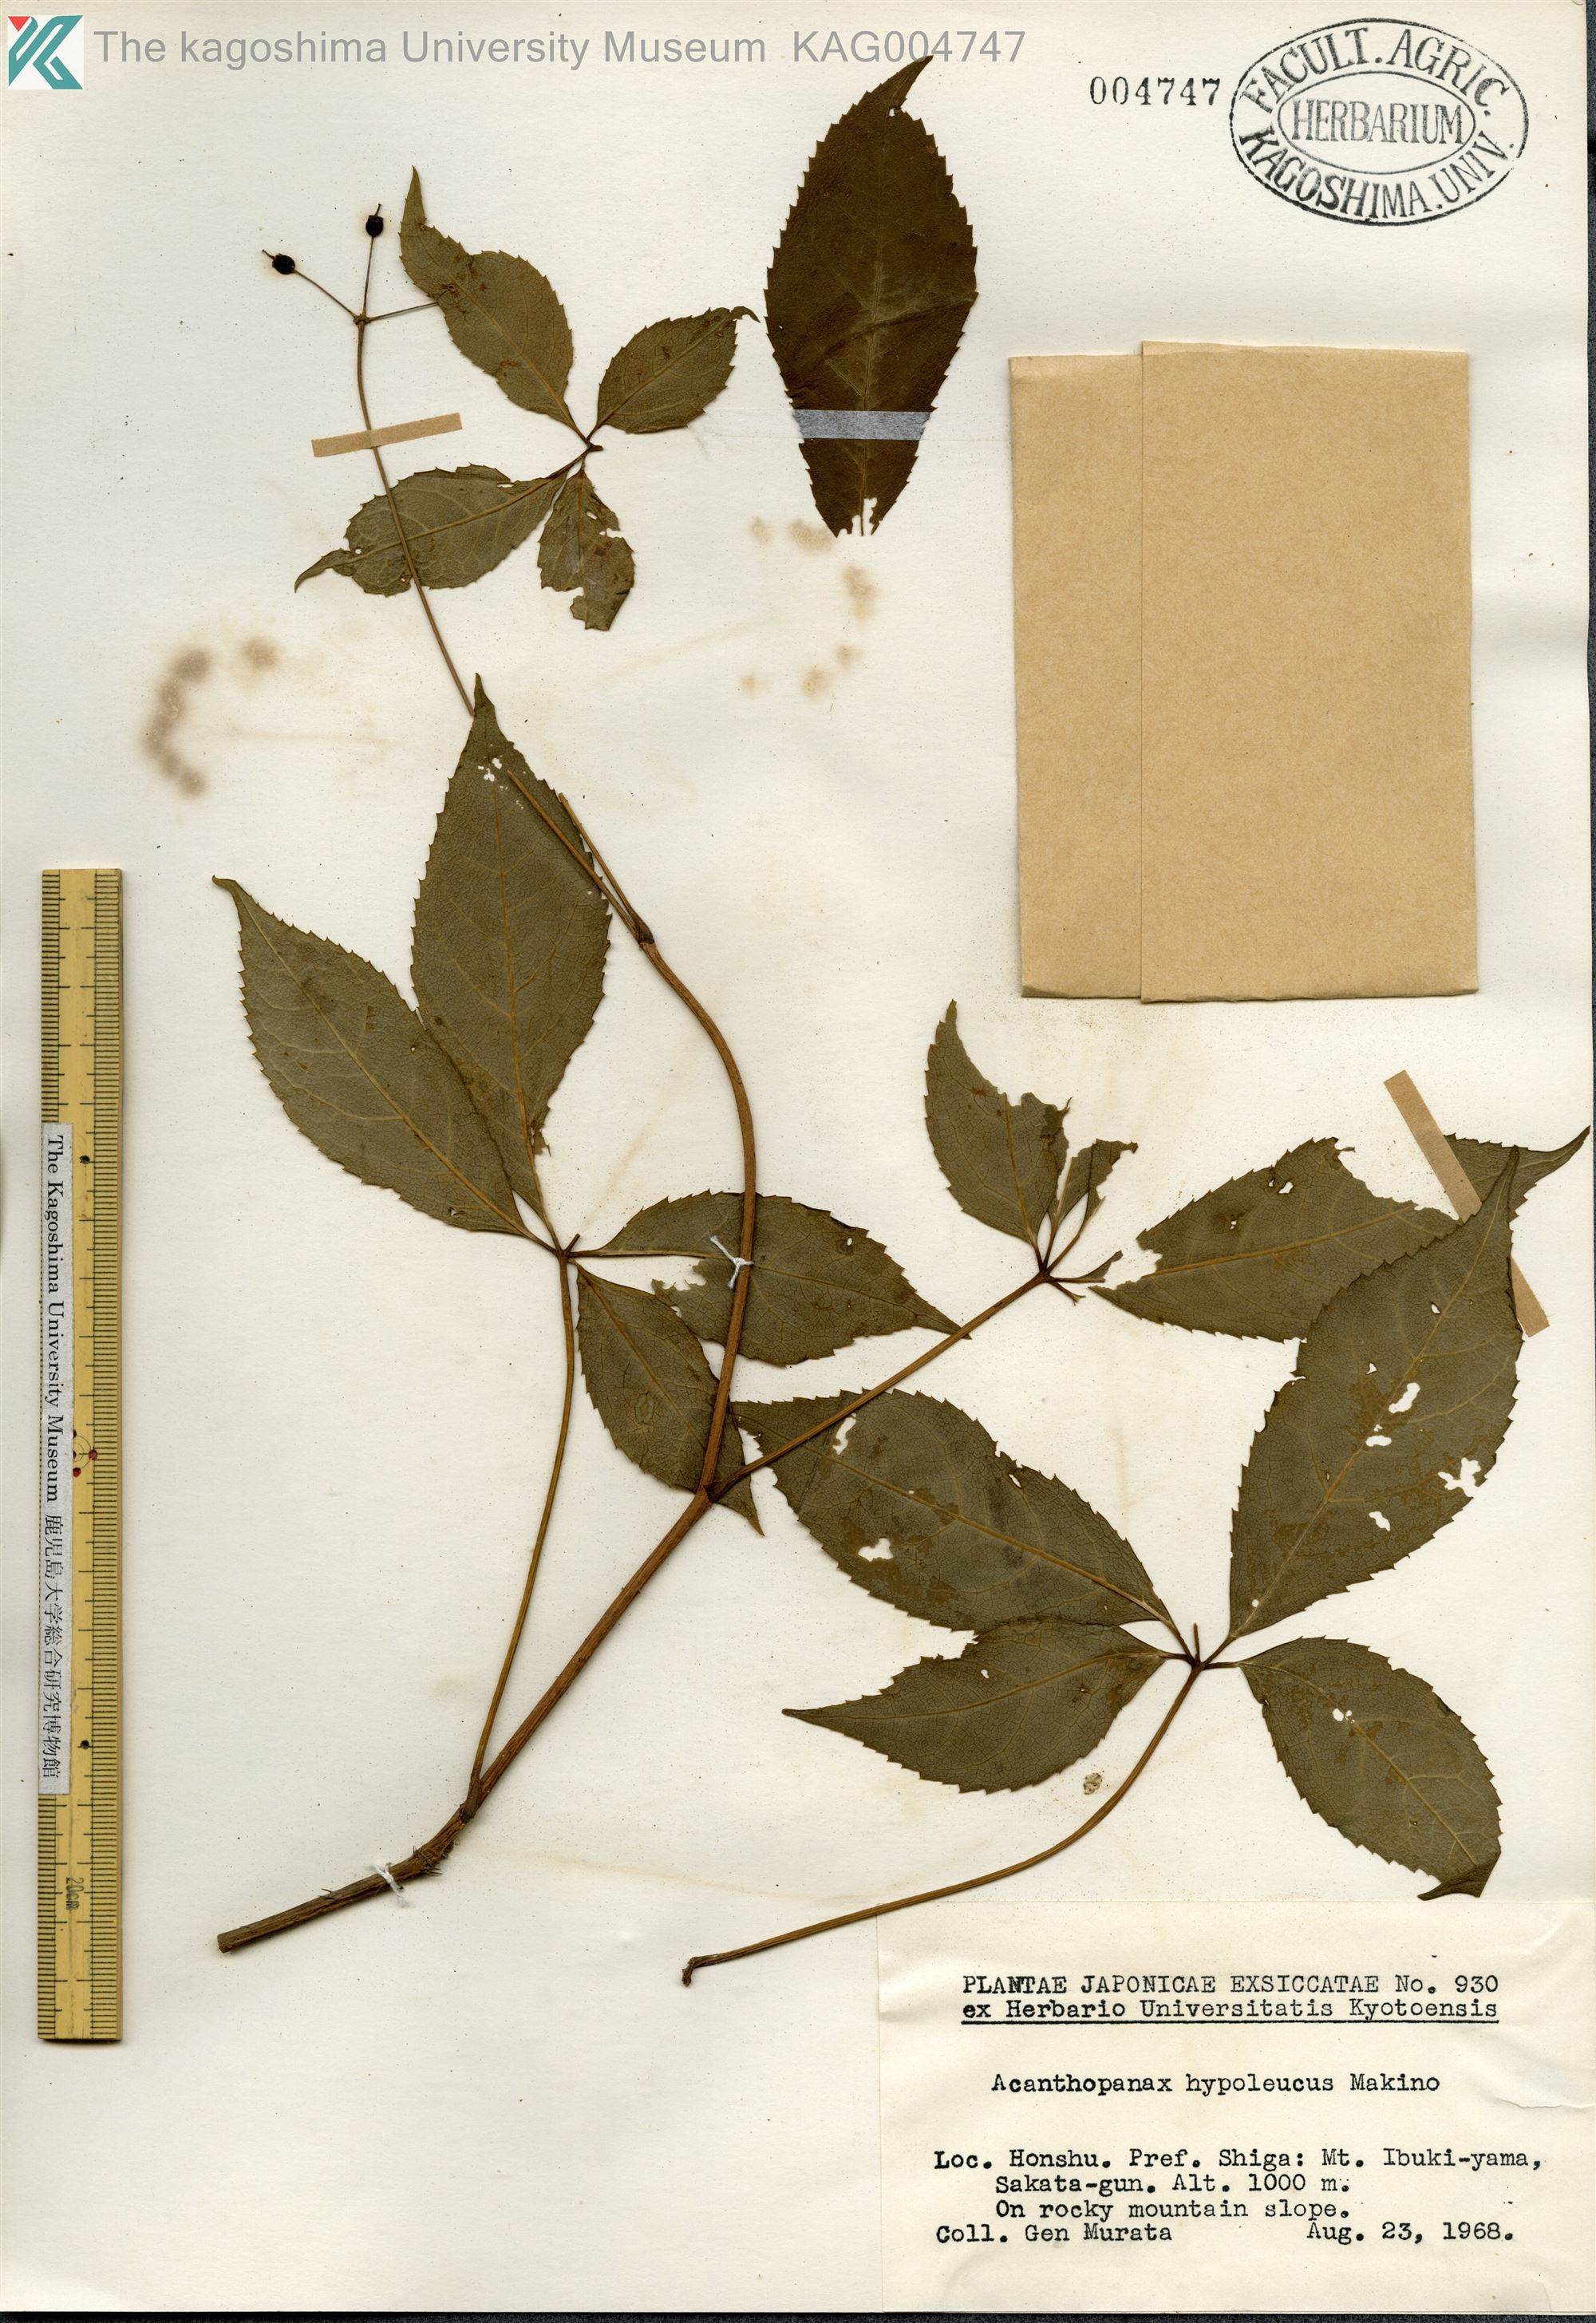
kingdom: Plantae
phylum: Tracheophyta
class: Magnoliopsida
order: Apiales
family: Araliaceae
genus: Eleutherococcus
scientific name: Eleutherococcus hypoleucus
